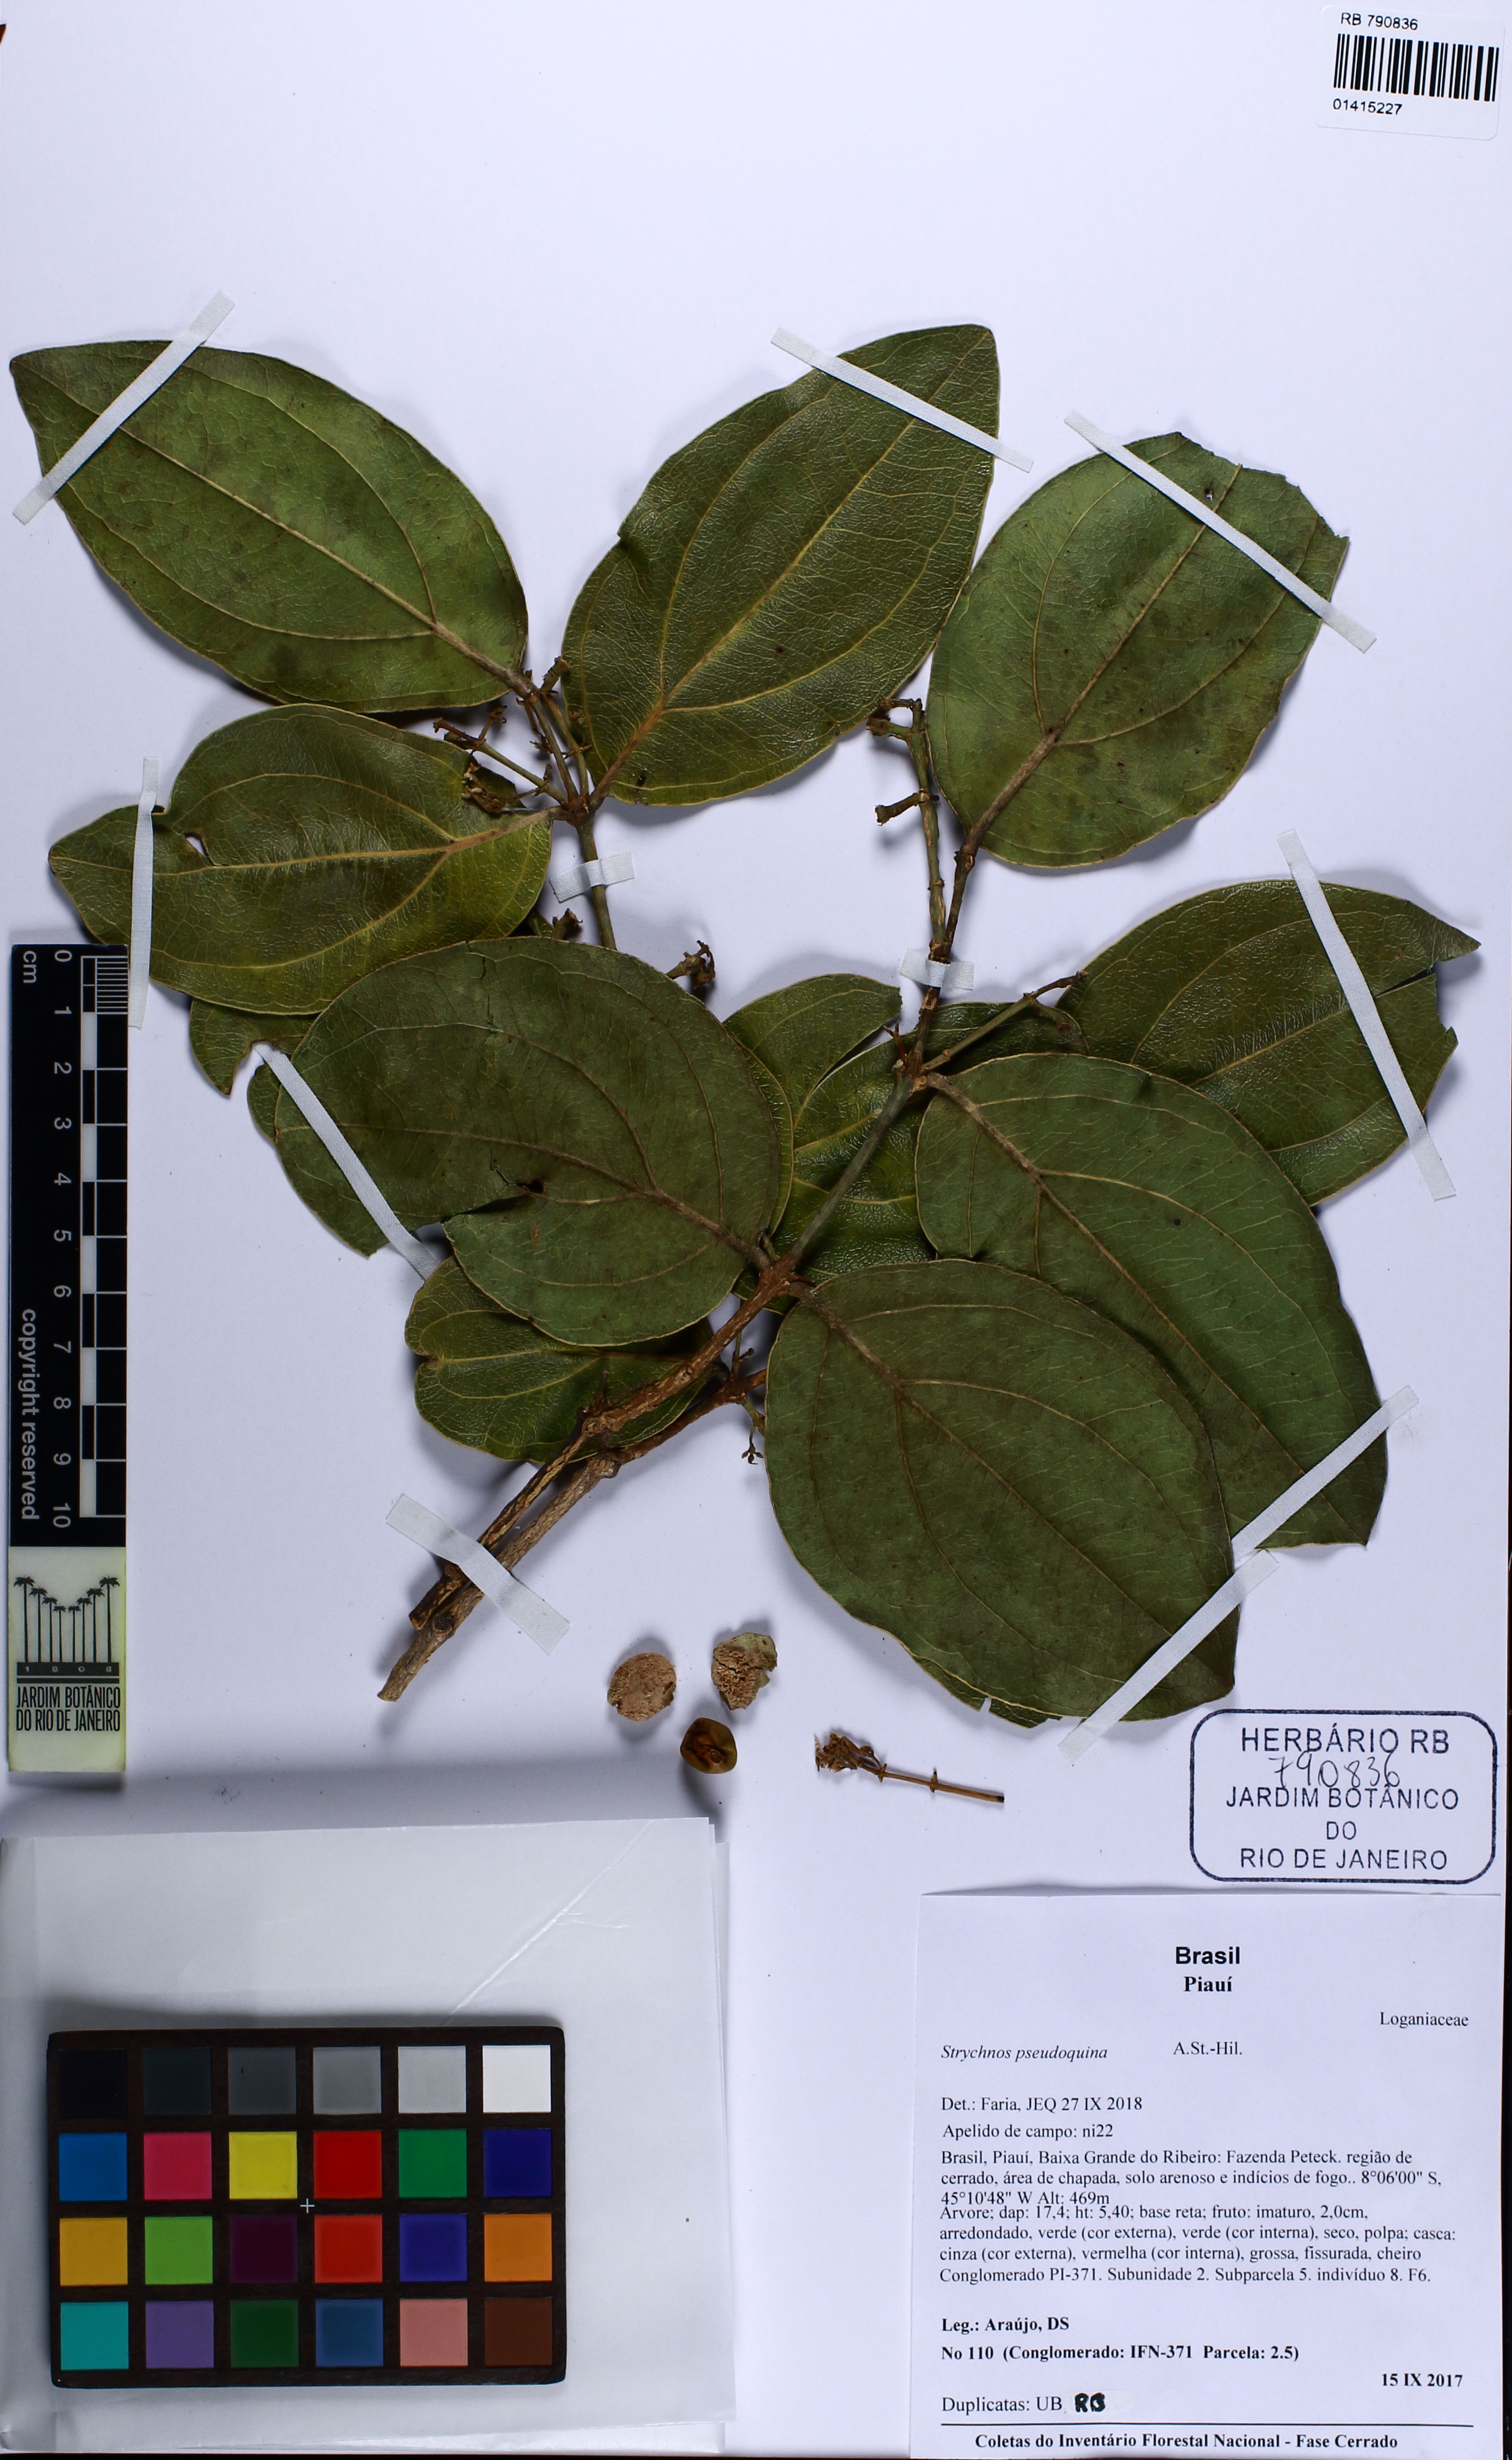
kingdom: Plantae
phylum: Tracheophyta
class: Magnoliopsida
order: Gentianales
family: Loganiaceae
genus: Strychnos
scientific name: Strychnos pseudoquina
